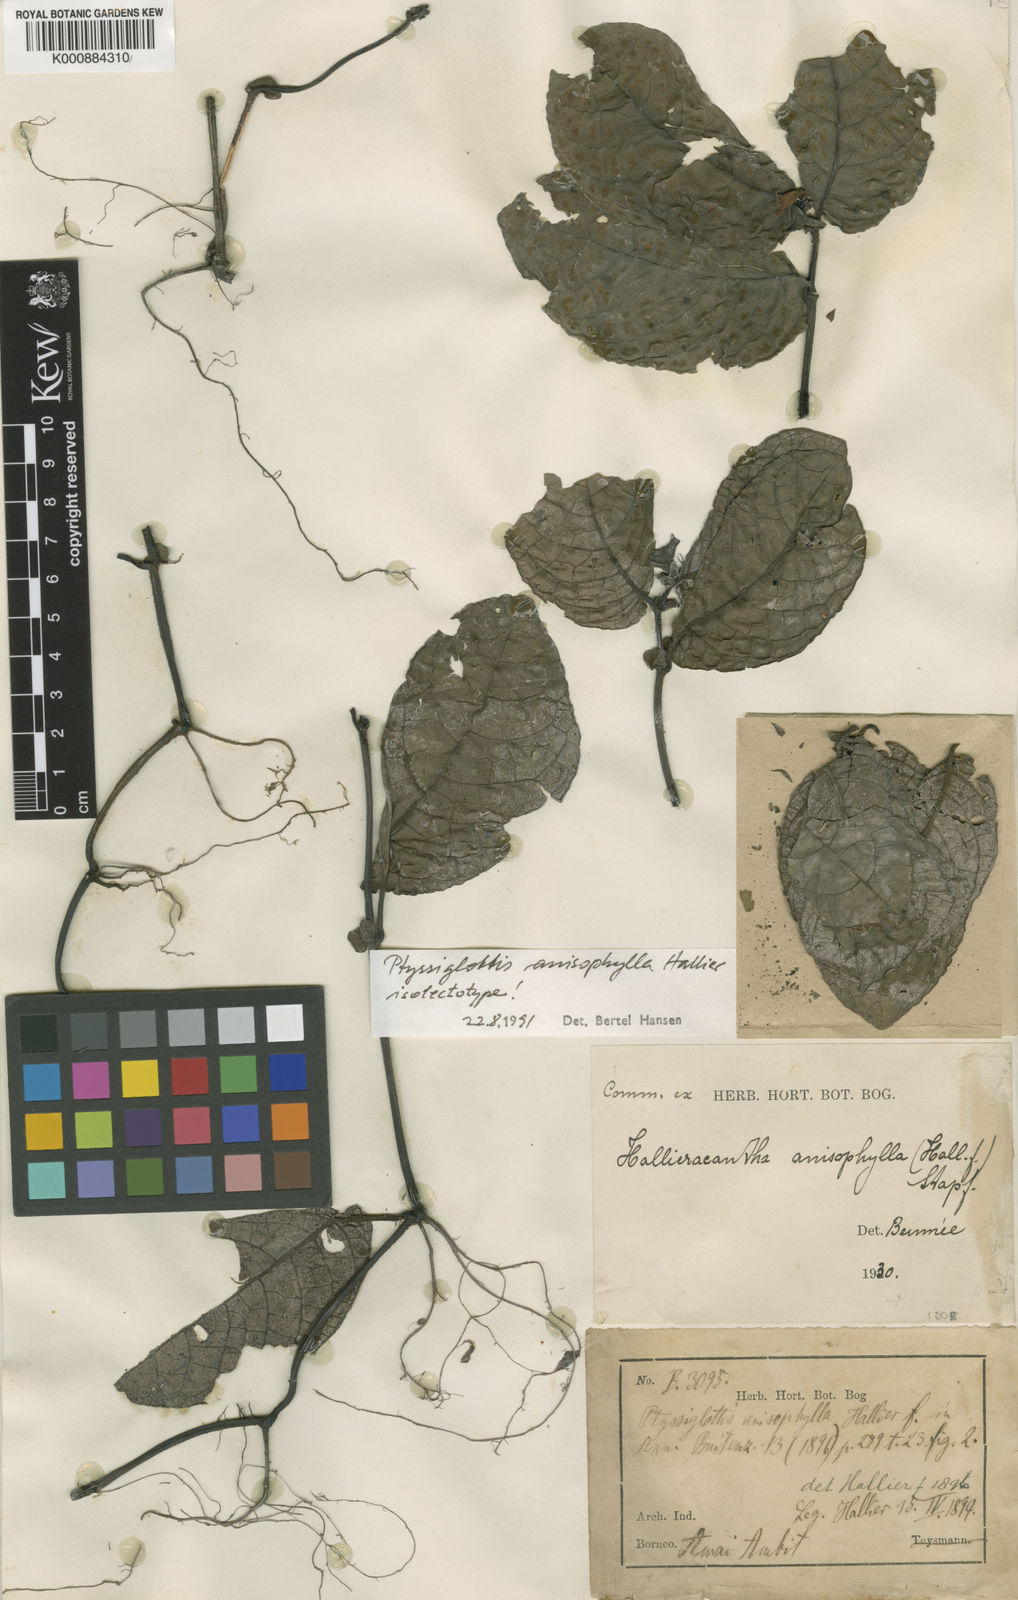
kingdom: Plantae
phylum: Tracheophyta
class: Magnoliopsida
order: Lamiales
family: Acanthaceae
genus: Ptyssiglottis
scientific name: Ptyssiglottis granulata
